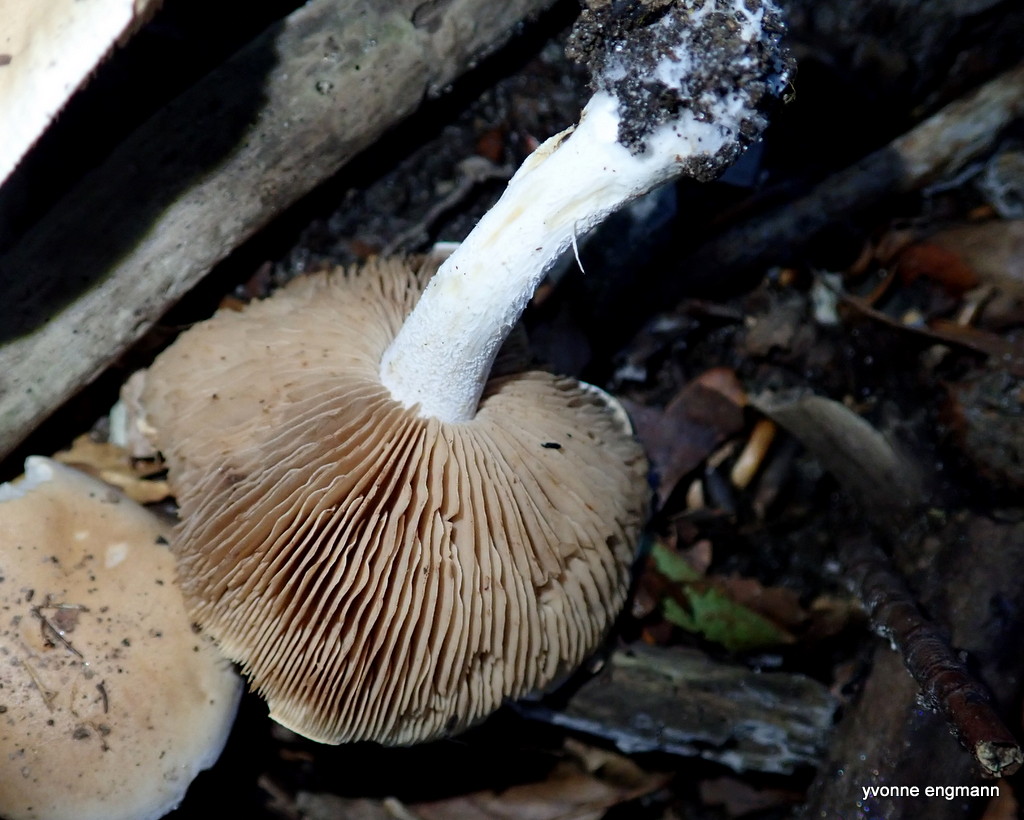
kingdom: Fungi
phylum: Basidiomycota
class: Agaricomycetes
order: Agaricales
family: Hymenogastraceae
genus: Hebeloma
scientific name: Hebeloma sinapizans
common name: ræddike-tåreblad
